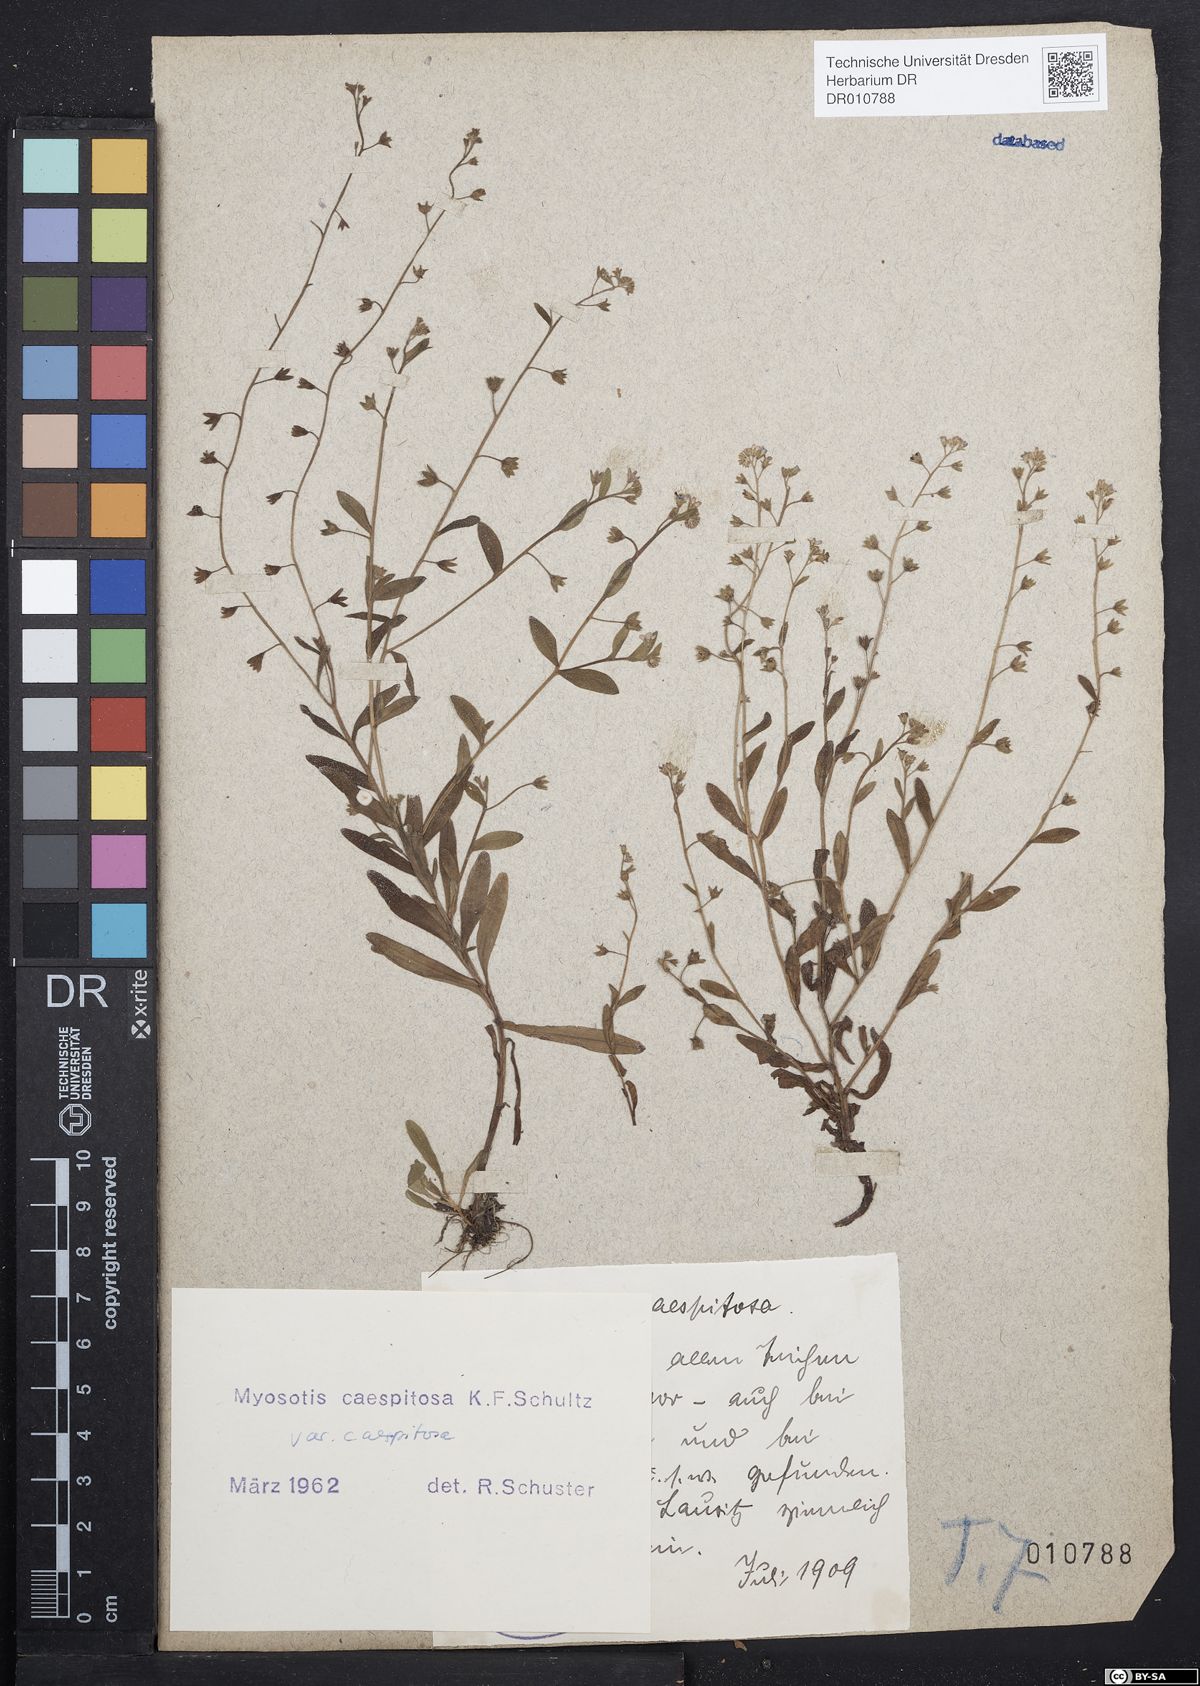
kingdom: Plantae
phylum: Tracheophyta
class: Magnoliopsida
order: Boraginales
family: Boraginaceae
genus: Myosotis
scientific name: Myosotis laxa
